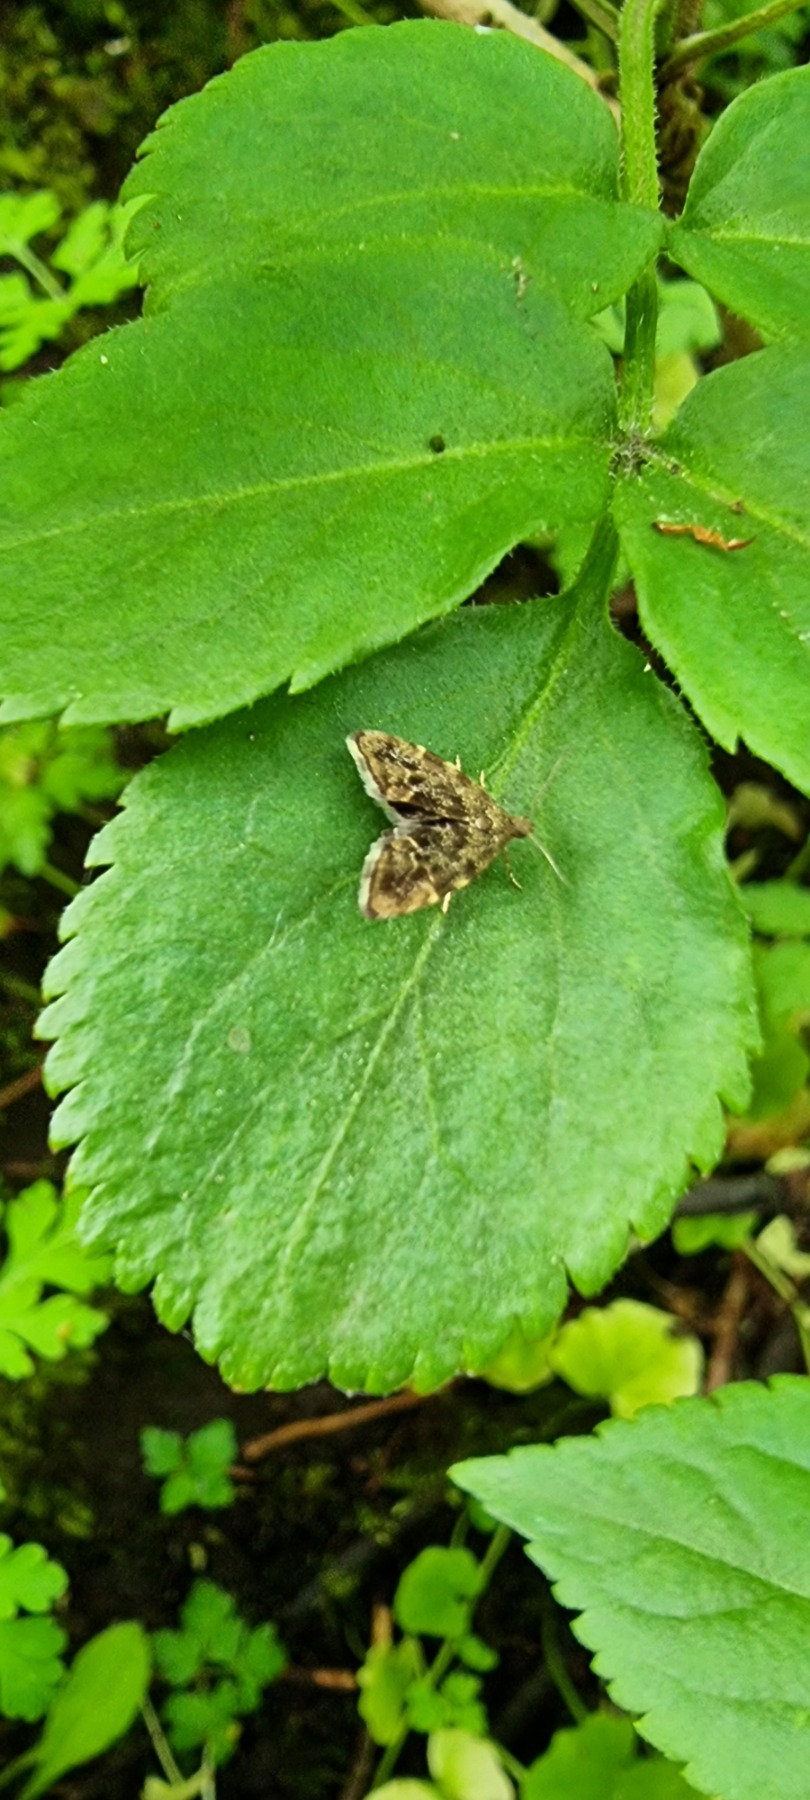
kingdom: Animalia
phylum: Arthropoda
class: Insecta
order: Lepidoptera
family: Choreutidae
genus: Anthophila
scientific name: Anthophila fabriciana
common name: Bredvinget nældevikler
